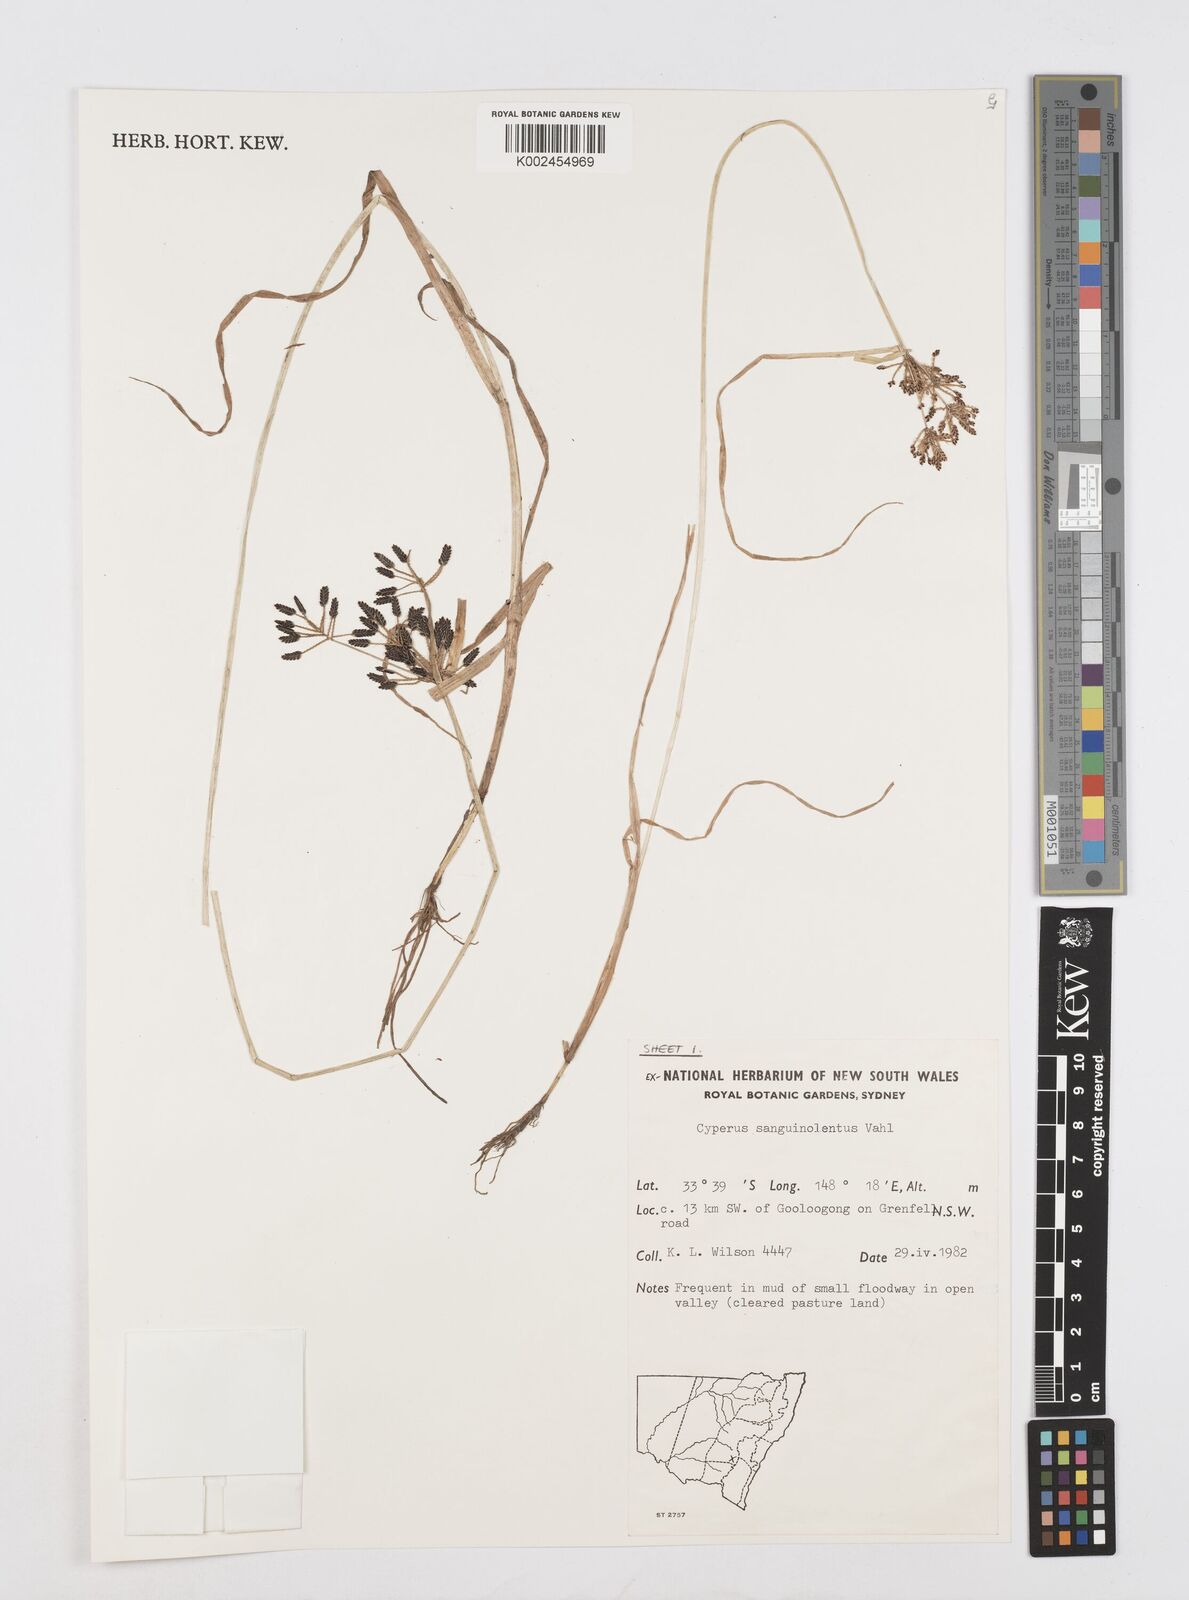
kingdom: Plantae
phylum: Tracheophyta
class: Liliopsida
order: Poales
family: Cyperaceae
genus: Cyperus
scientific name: Cyperus sanguinolentus
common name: Purpleglume flatsedge
